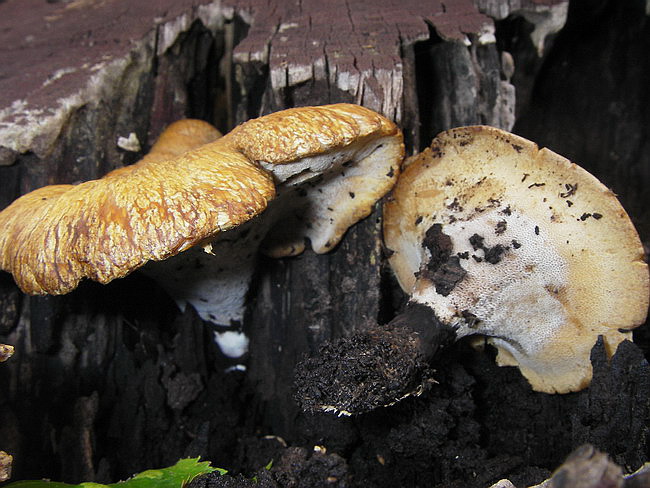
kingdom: Fungi
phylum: Basidiomycota
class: Agaricomycetes
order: Polyporales
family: Polyporaceae
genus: Cerioporus
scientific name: Cerioporus varius
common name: foranderlig stilkporesvamp
